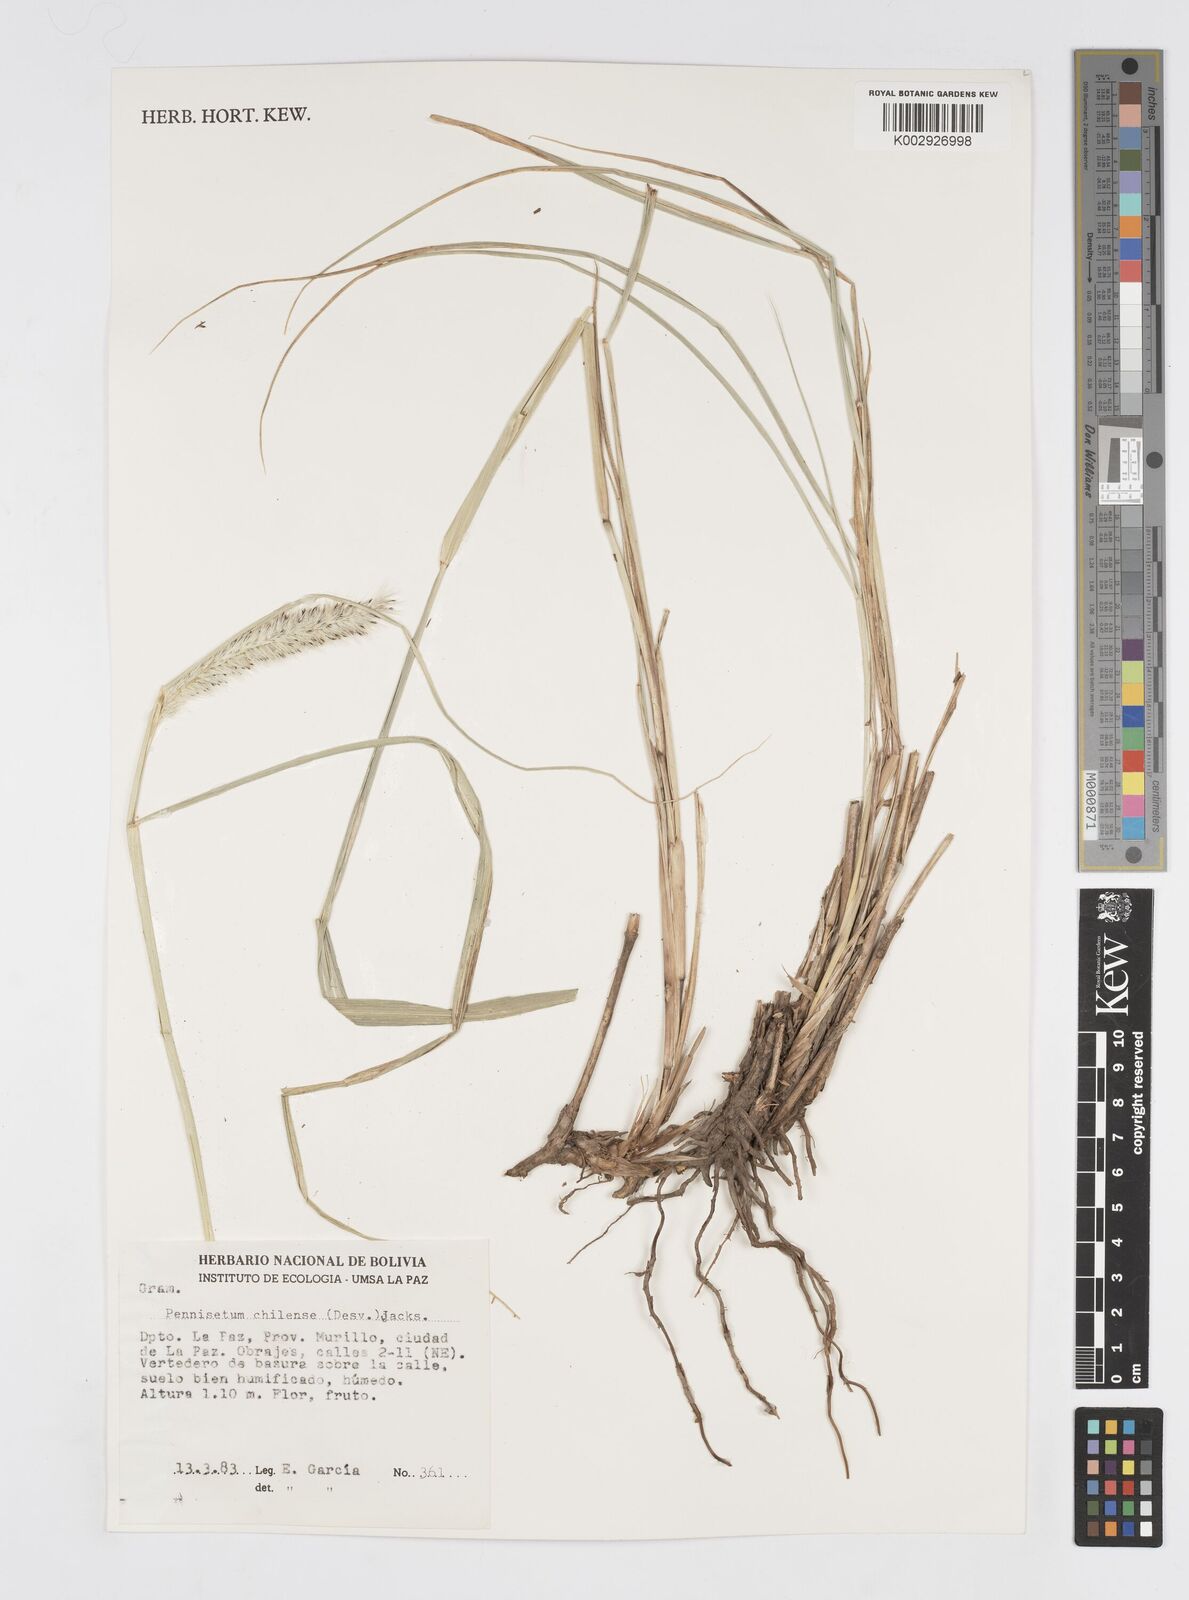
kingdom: Plantae
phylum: Tracheophyta
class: Liliopsida
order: Poales
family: Poaceae
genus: Cenchrus
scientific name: Cenchrus chilensis
